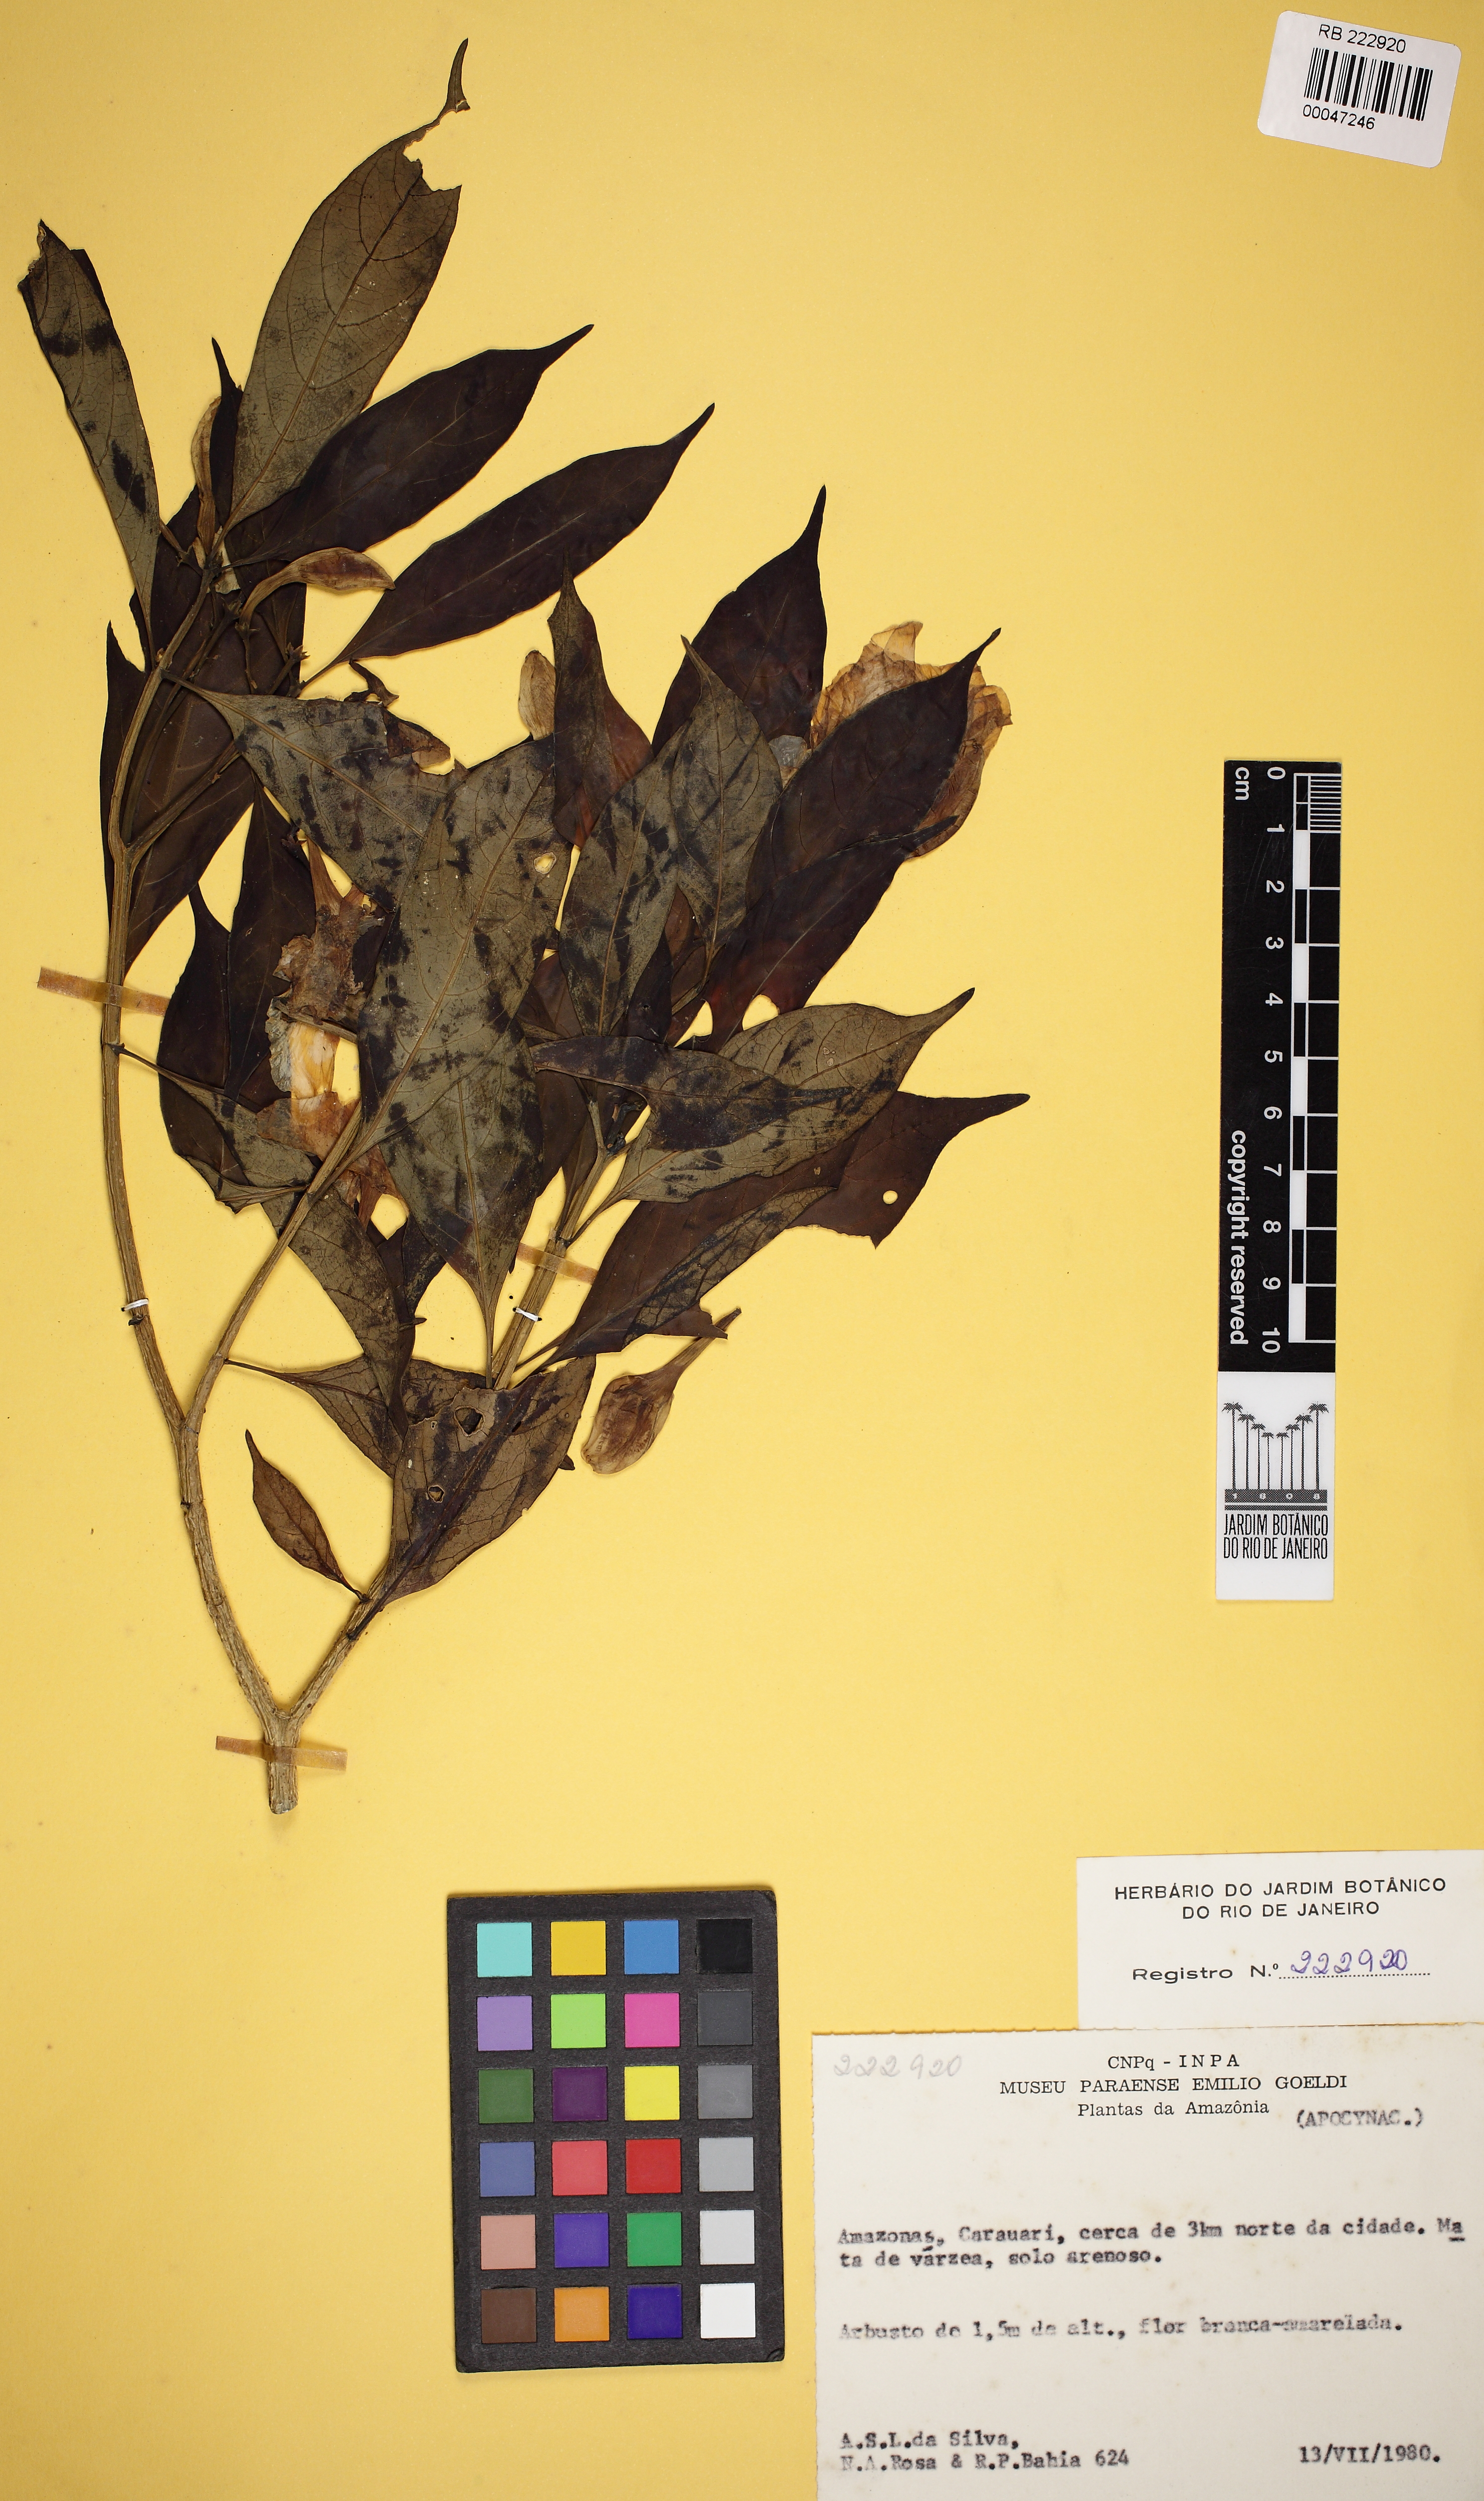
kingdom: Plantae
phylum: Tracheophyta
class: Magnoliopsida
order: Gentianales
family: Apocynaceae
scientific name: Apocynaceae
